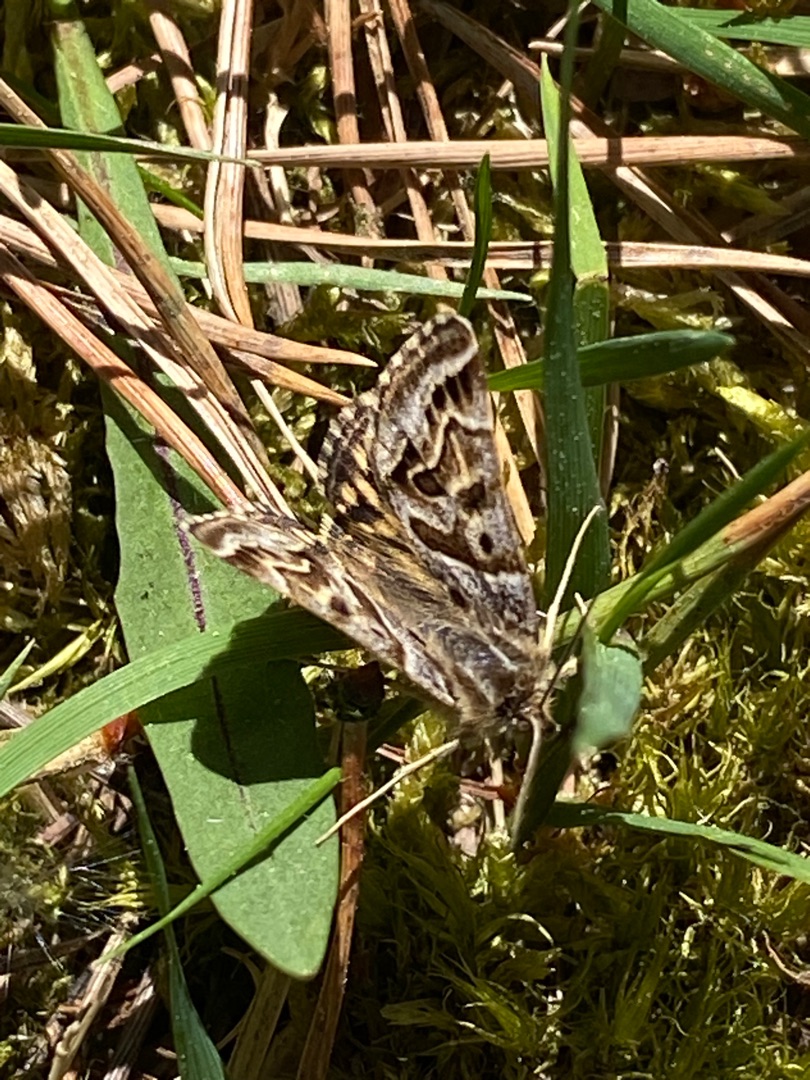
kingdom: Animalia
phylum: Arthropoda
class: Insecta
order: Lepidoptera
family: Erebidae
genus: Callistege
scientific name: Callistege mi
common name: Marmoreret kløverugle
